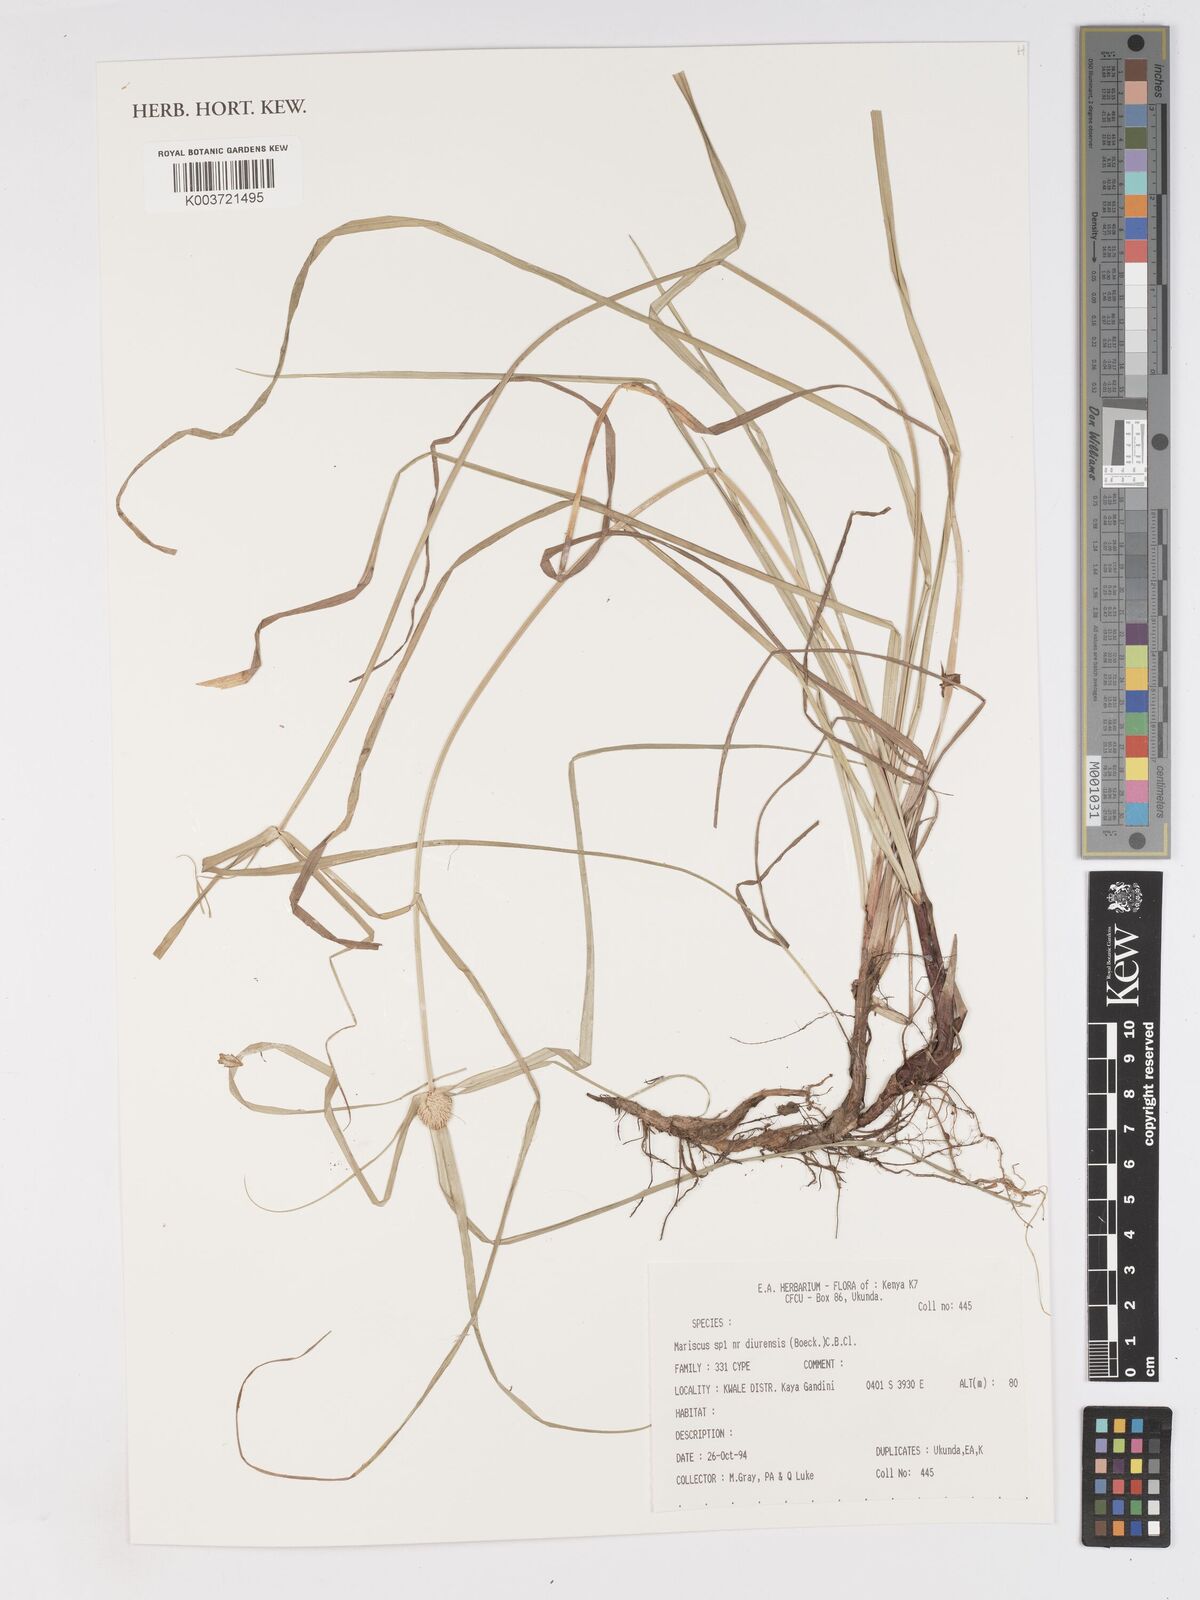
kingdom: Plantae
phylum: Tracheophyta
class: Liliopsida
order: Poales
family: Cyperaceae
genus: Cyperus
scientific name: Cyperus diurensis
